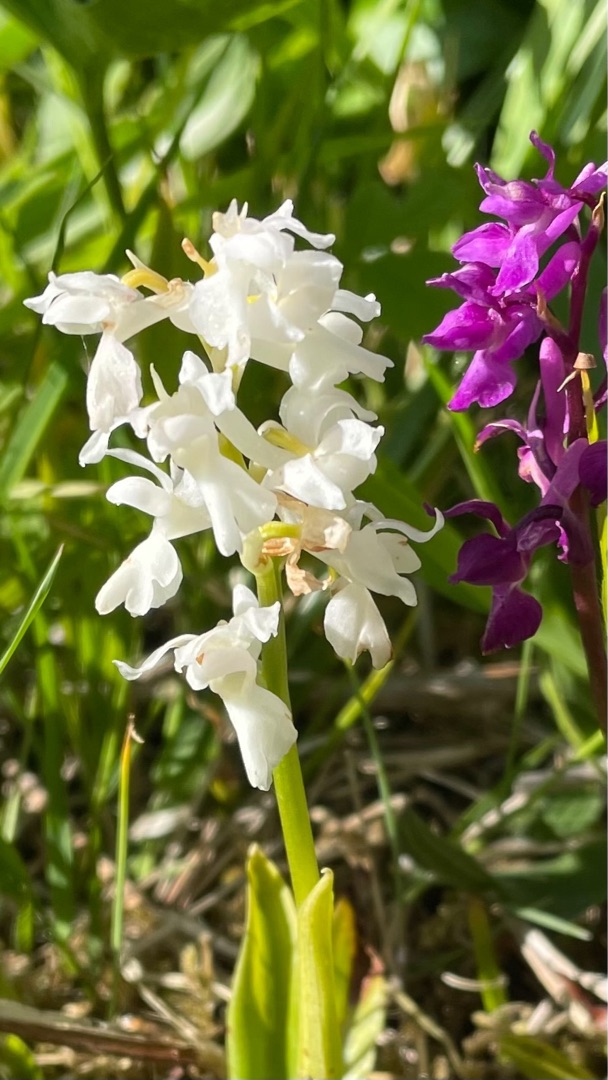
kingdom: Plantae
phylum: Tracheophyta
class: Liliopsida
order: Asparagales
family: Orchidaceae
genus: Orchis
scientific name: Orchis mascula
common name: Tyndakset gøgeurt
